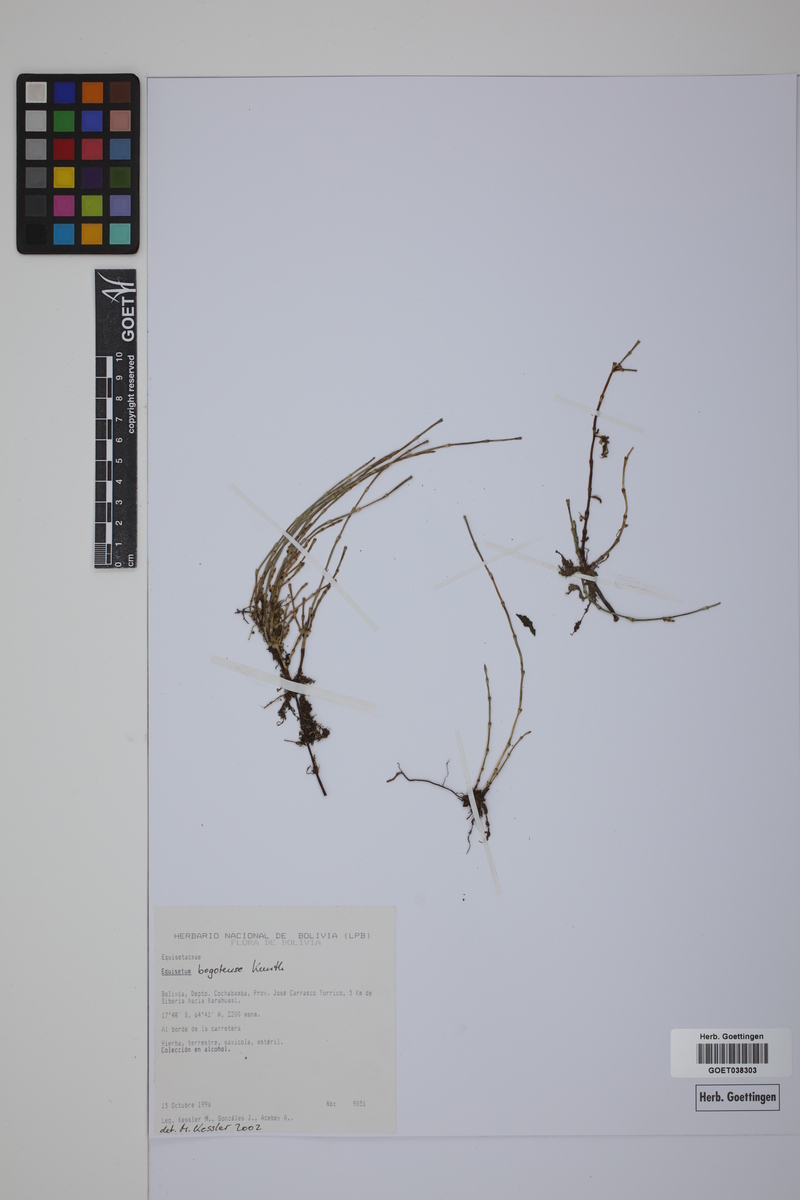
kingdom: Plantae
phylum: Tracheophyta
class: Polypodiopsida
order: Equisetales
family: Equisetaceae
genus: Equisetum
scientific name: Equisetum bogotense
